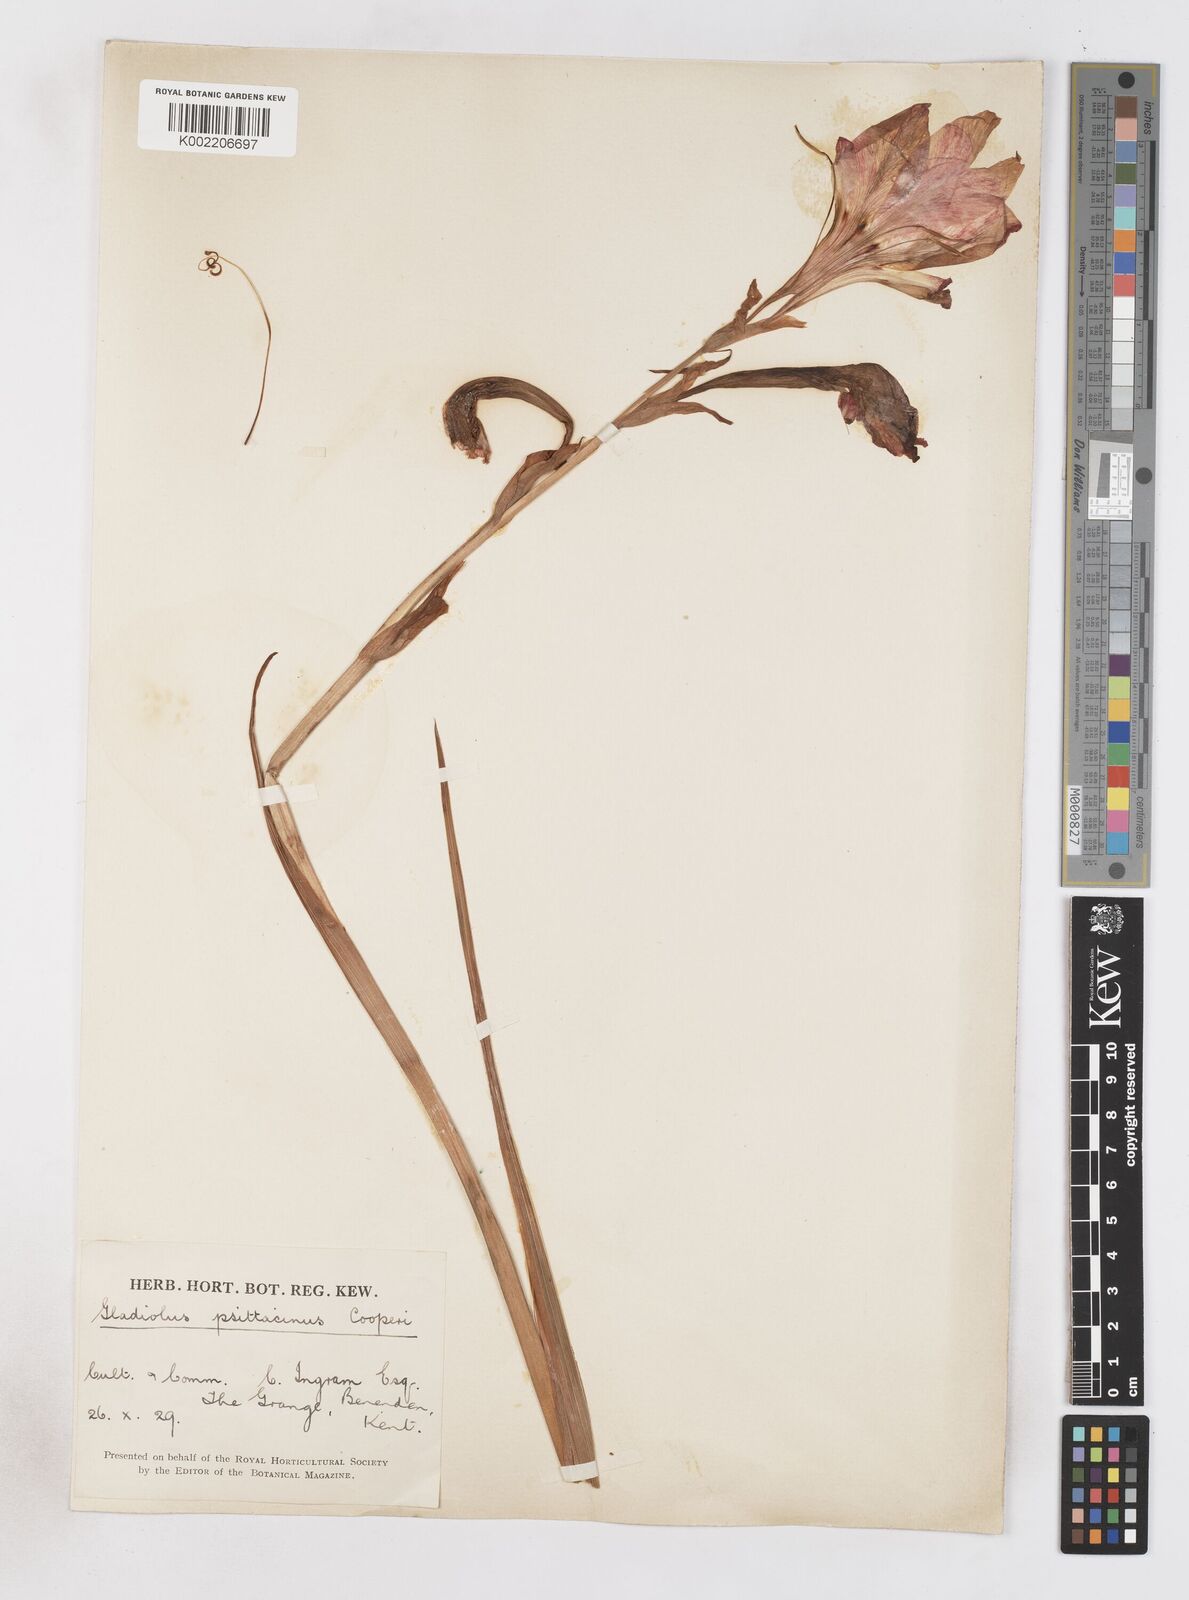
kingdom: Plantae
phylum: Tracheophyta
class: Liliopsida
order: Asparagales
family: Iridaceae
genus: Gladiolus
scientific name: Gladiolus dalenii
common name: Cornflag
